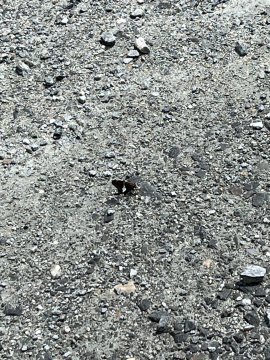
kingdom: Animalia
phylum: Arthropoda
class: Insecta
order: Lepidoptera
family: Hesperiidae
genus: Epargyreus
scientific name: Epargyreus clarus
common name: Silver-spotted Skipper
